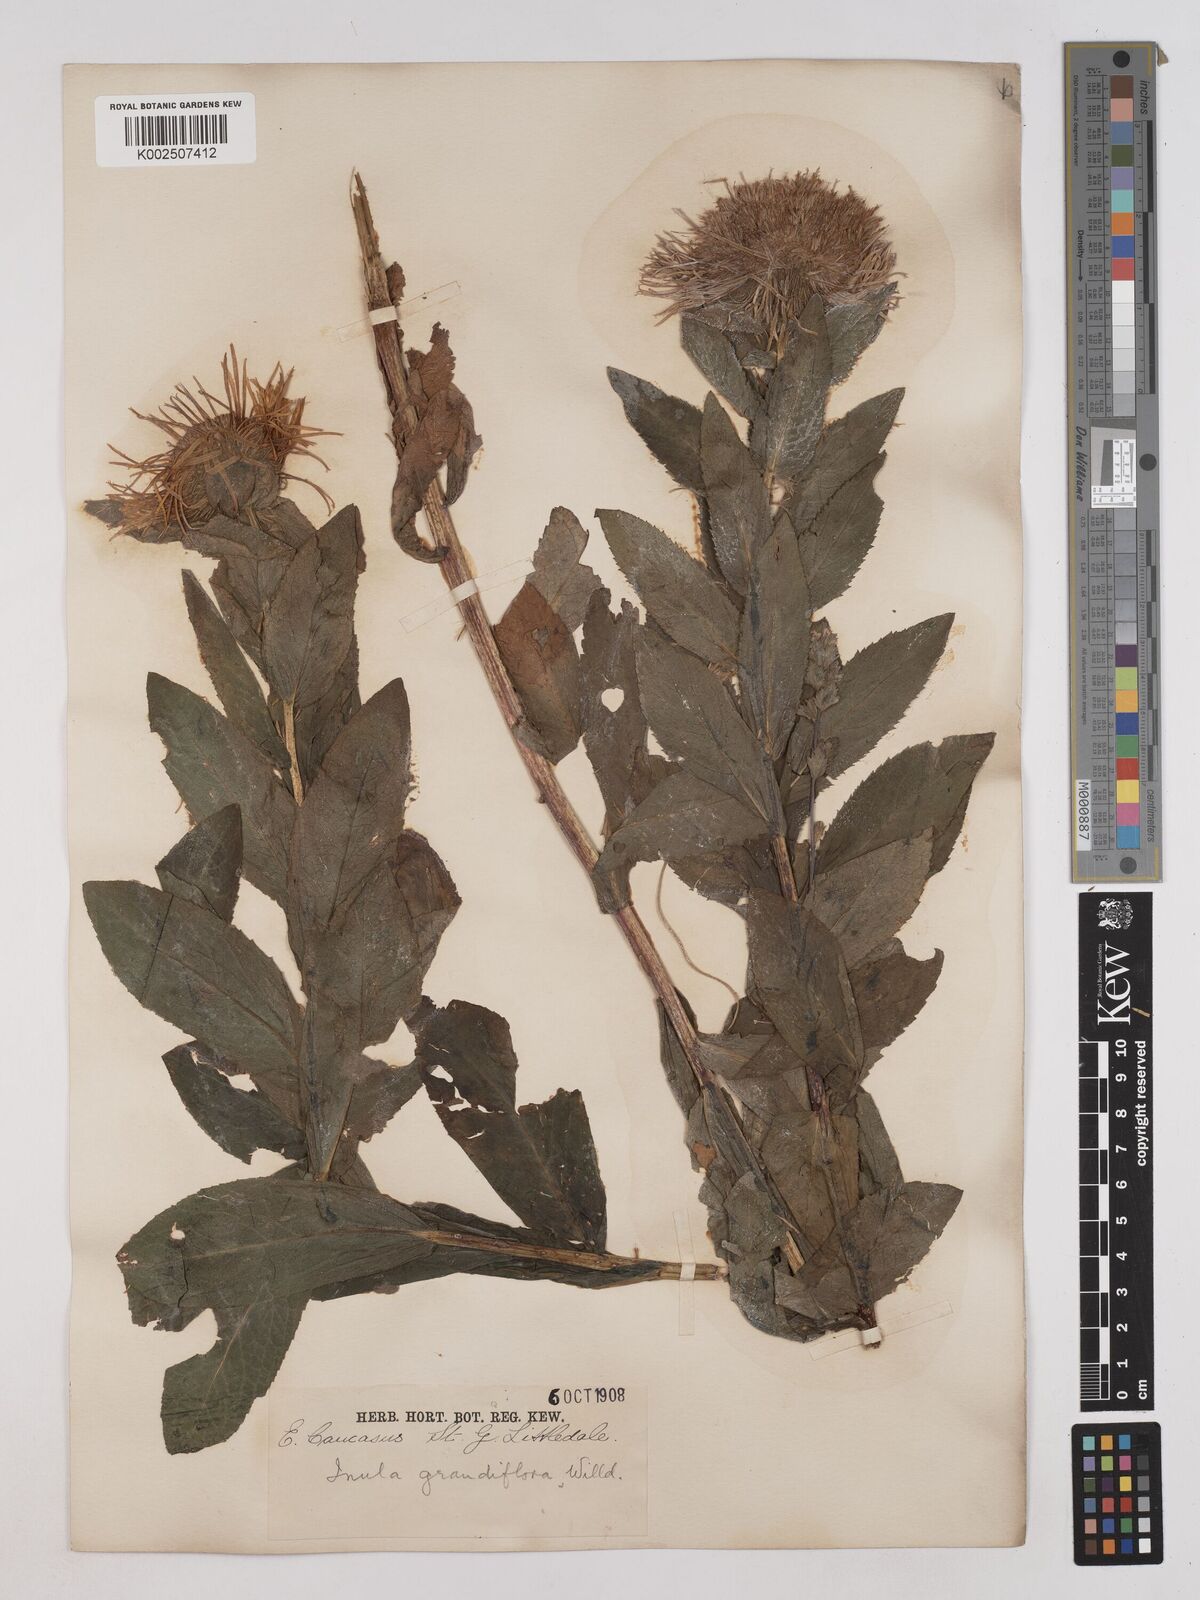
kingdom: Plantae
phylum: Tracheophyta
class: Magnoliopsida
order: Asterales
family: Asteraceae
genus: Pentanema
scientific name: Pentanema orientale
